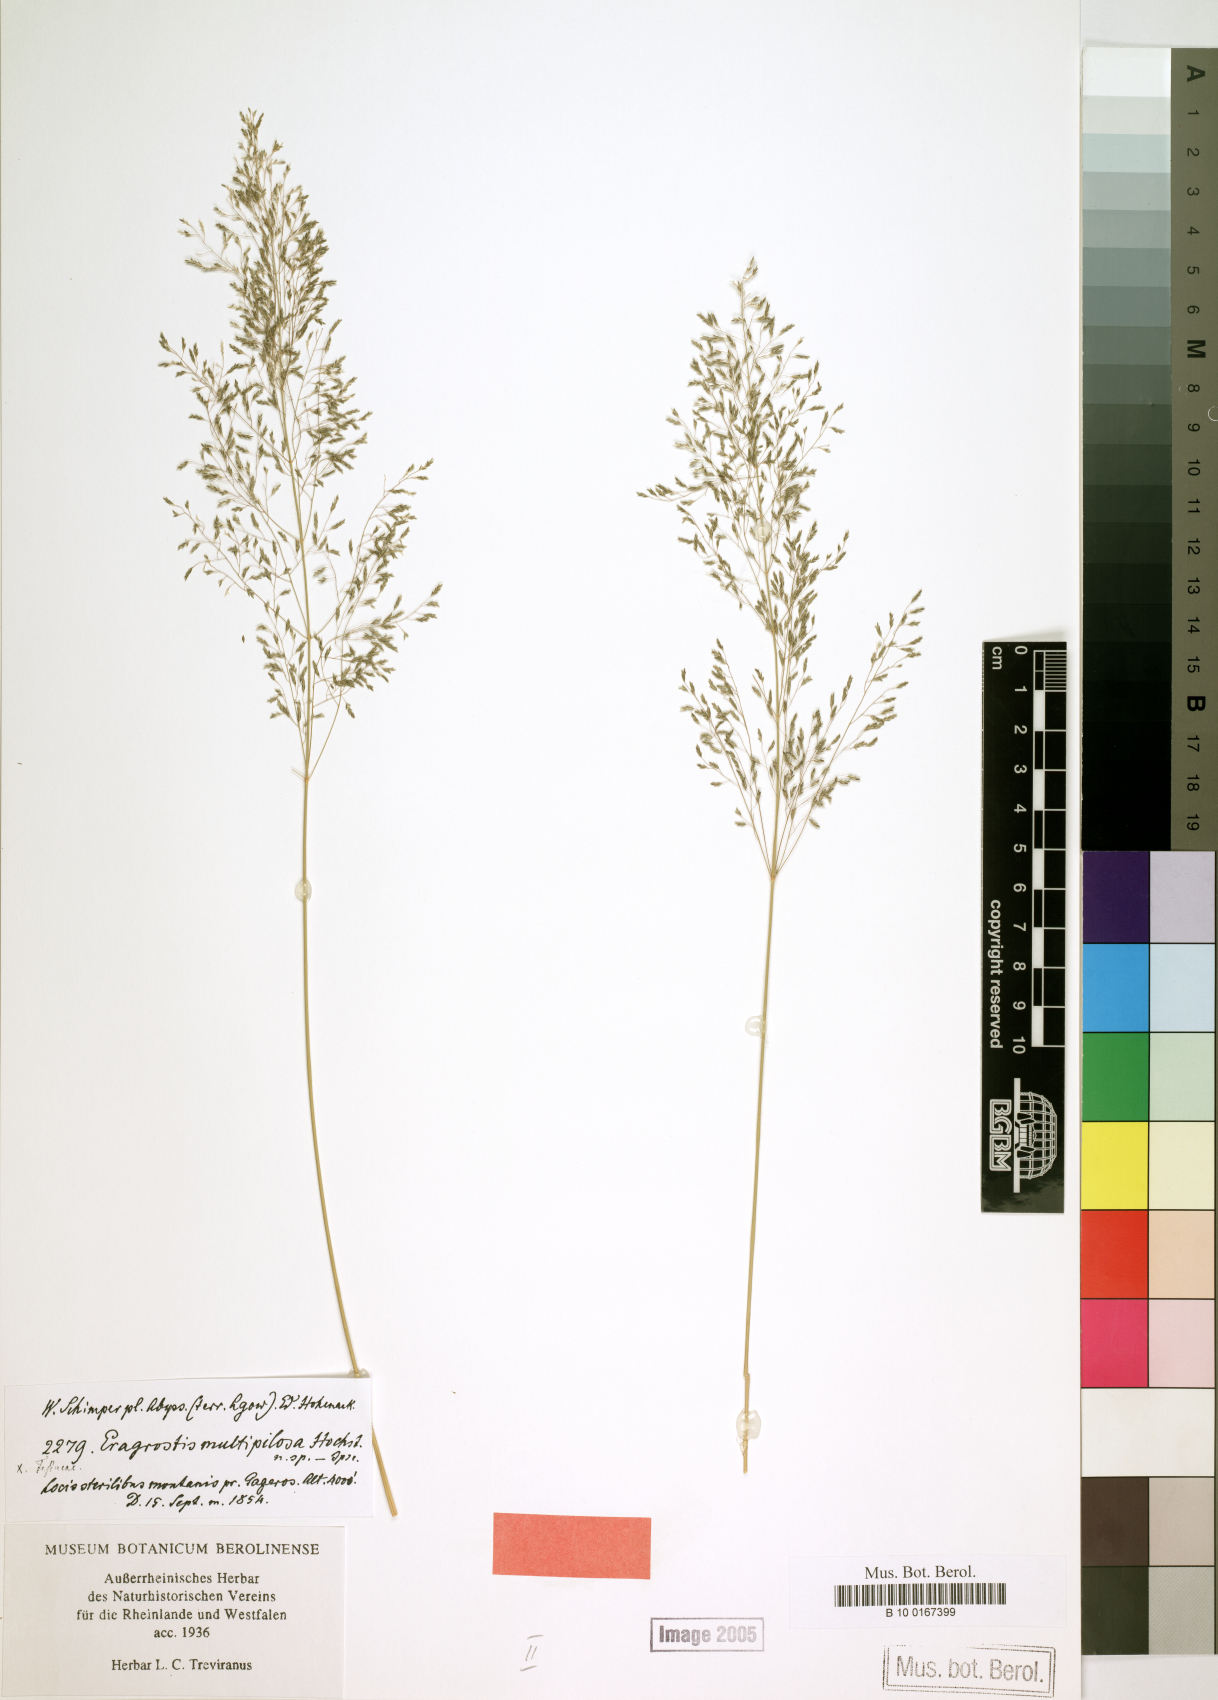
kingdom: Plantae
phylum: Tracheophyta
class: Liliopsida
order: Poales
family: Poaceae
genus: Eragrostis
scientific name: Eragrostis cylindriflora
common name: Cylinderflower lovegrass
